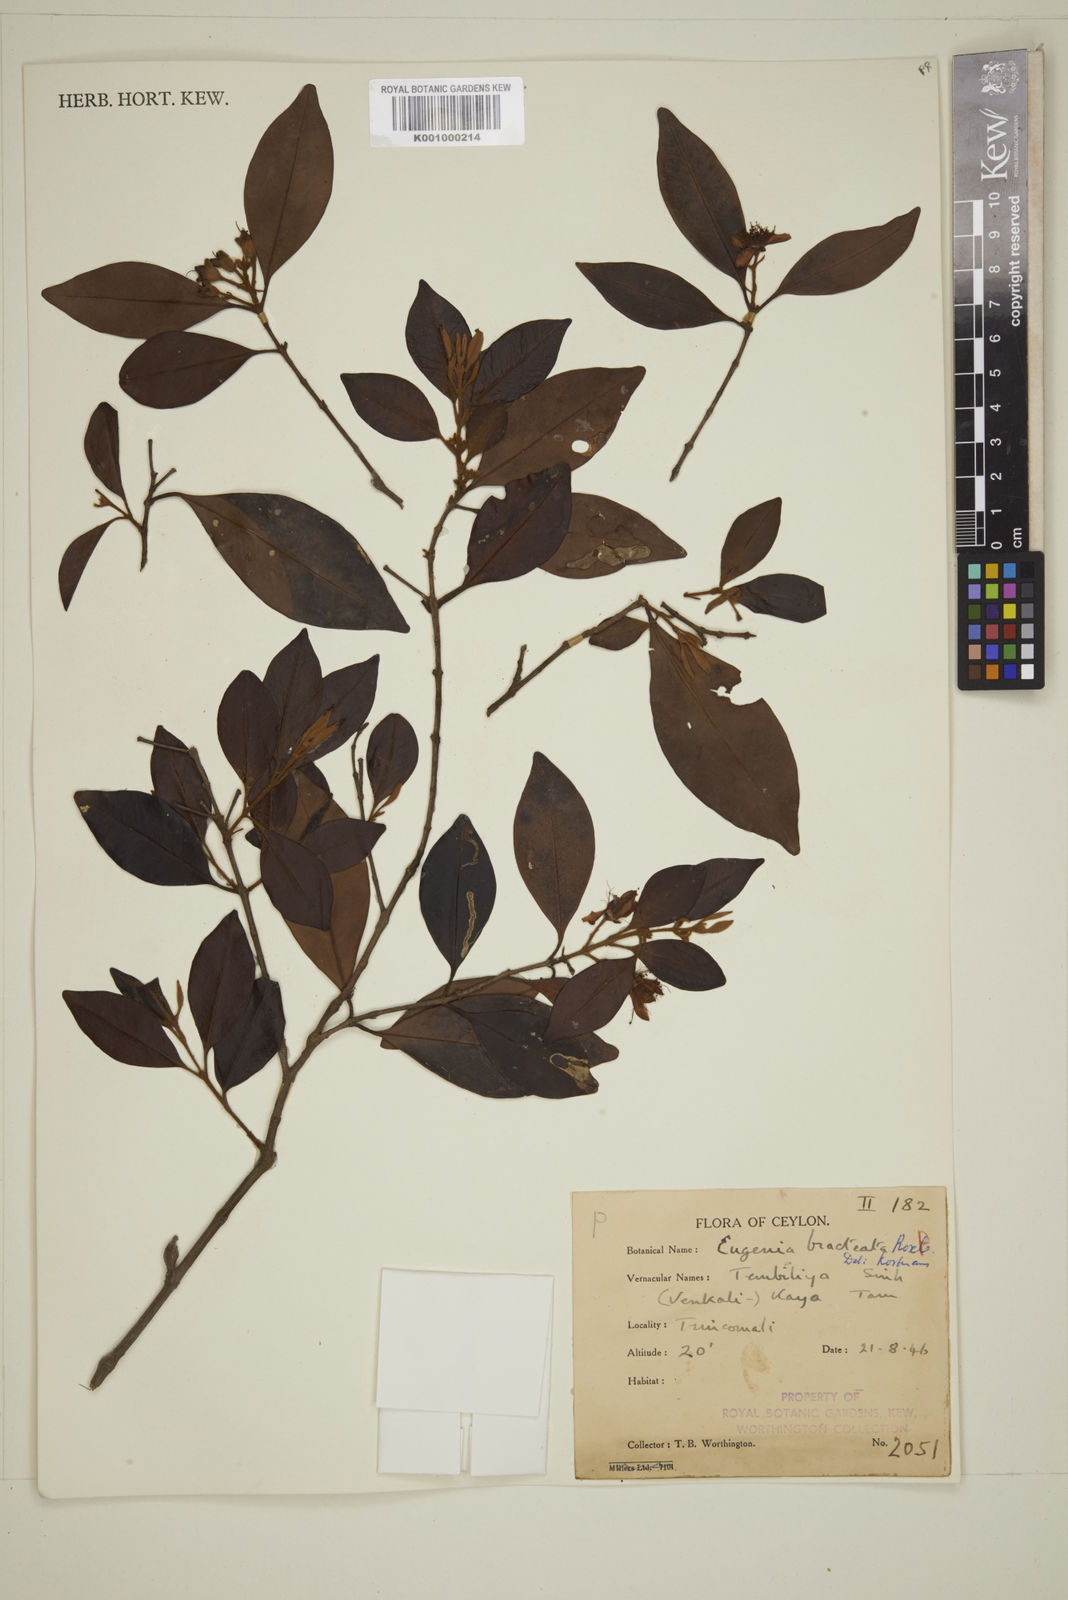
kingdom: Plantae
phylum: Tracheophyta
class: Magnoliopsida
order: Myrtales
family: Myrtaceae
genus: Eugenia
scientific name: Eugenia pseudopsidium
